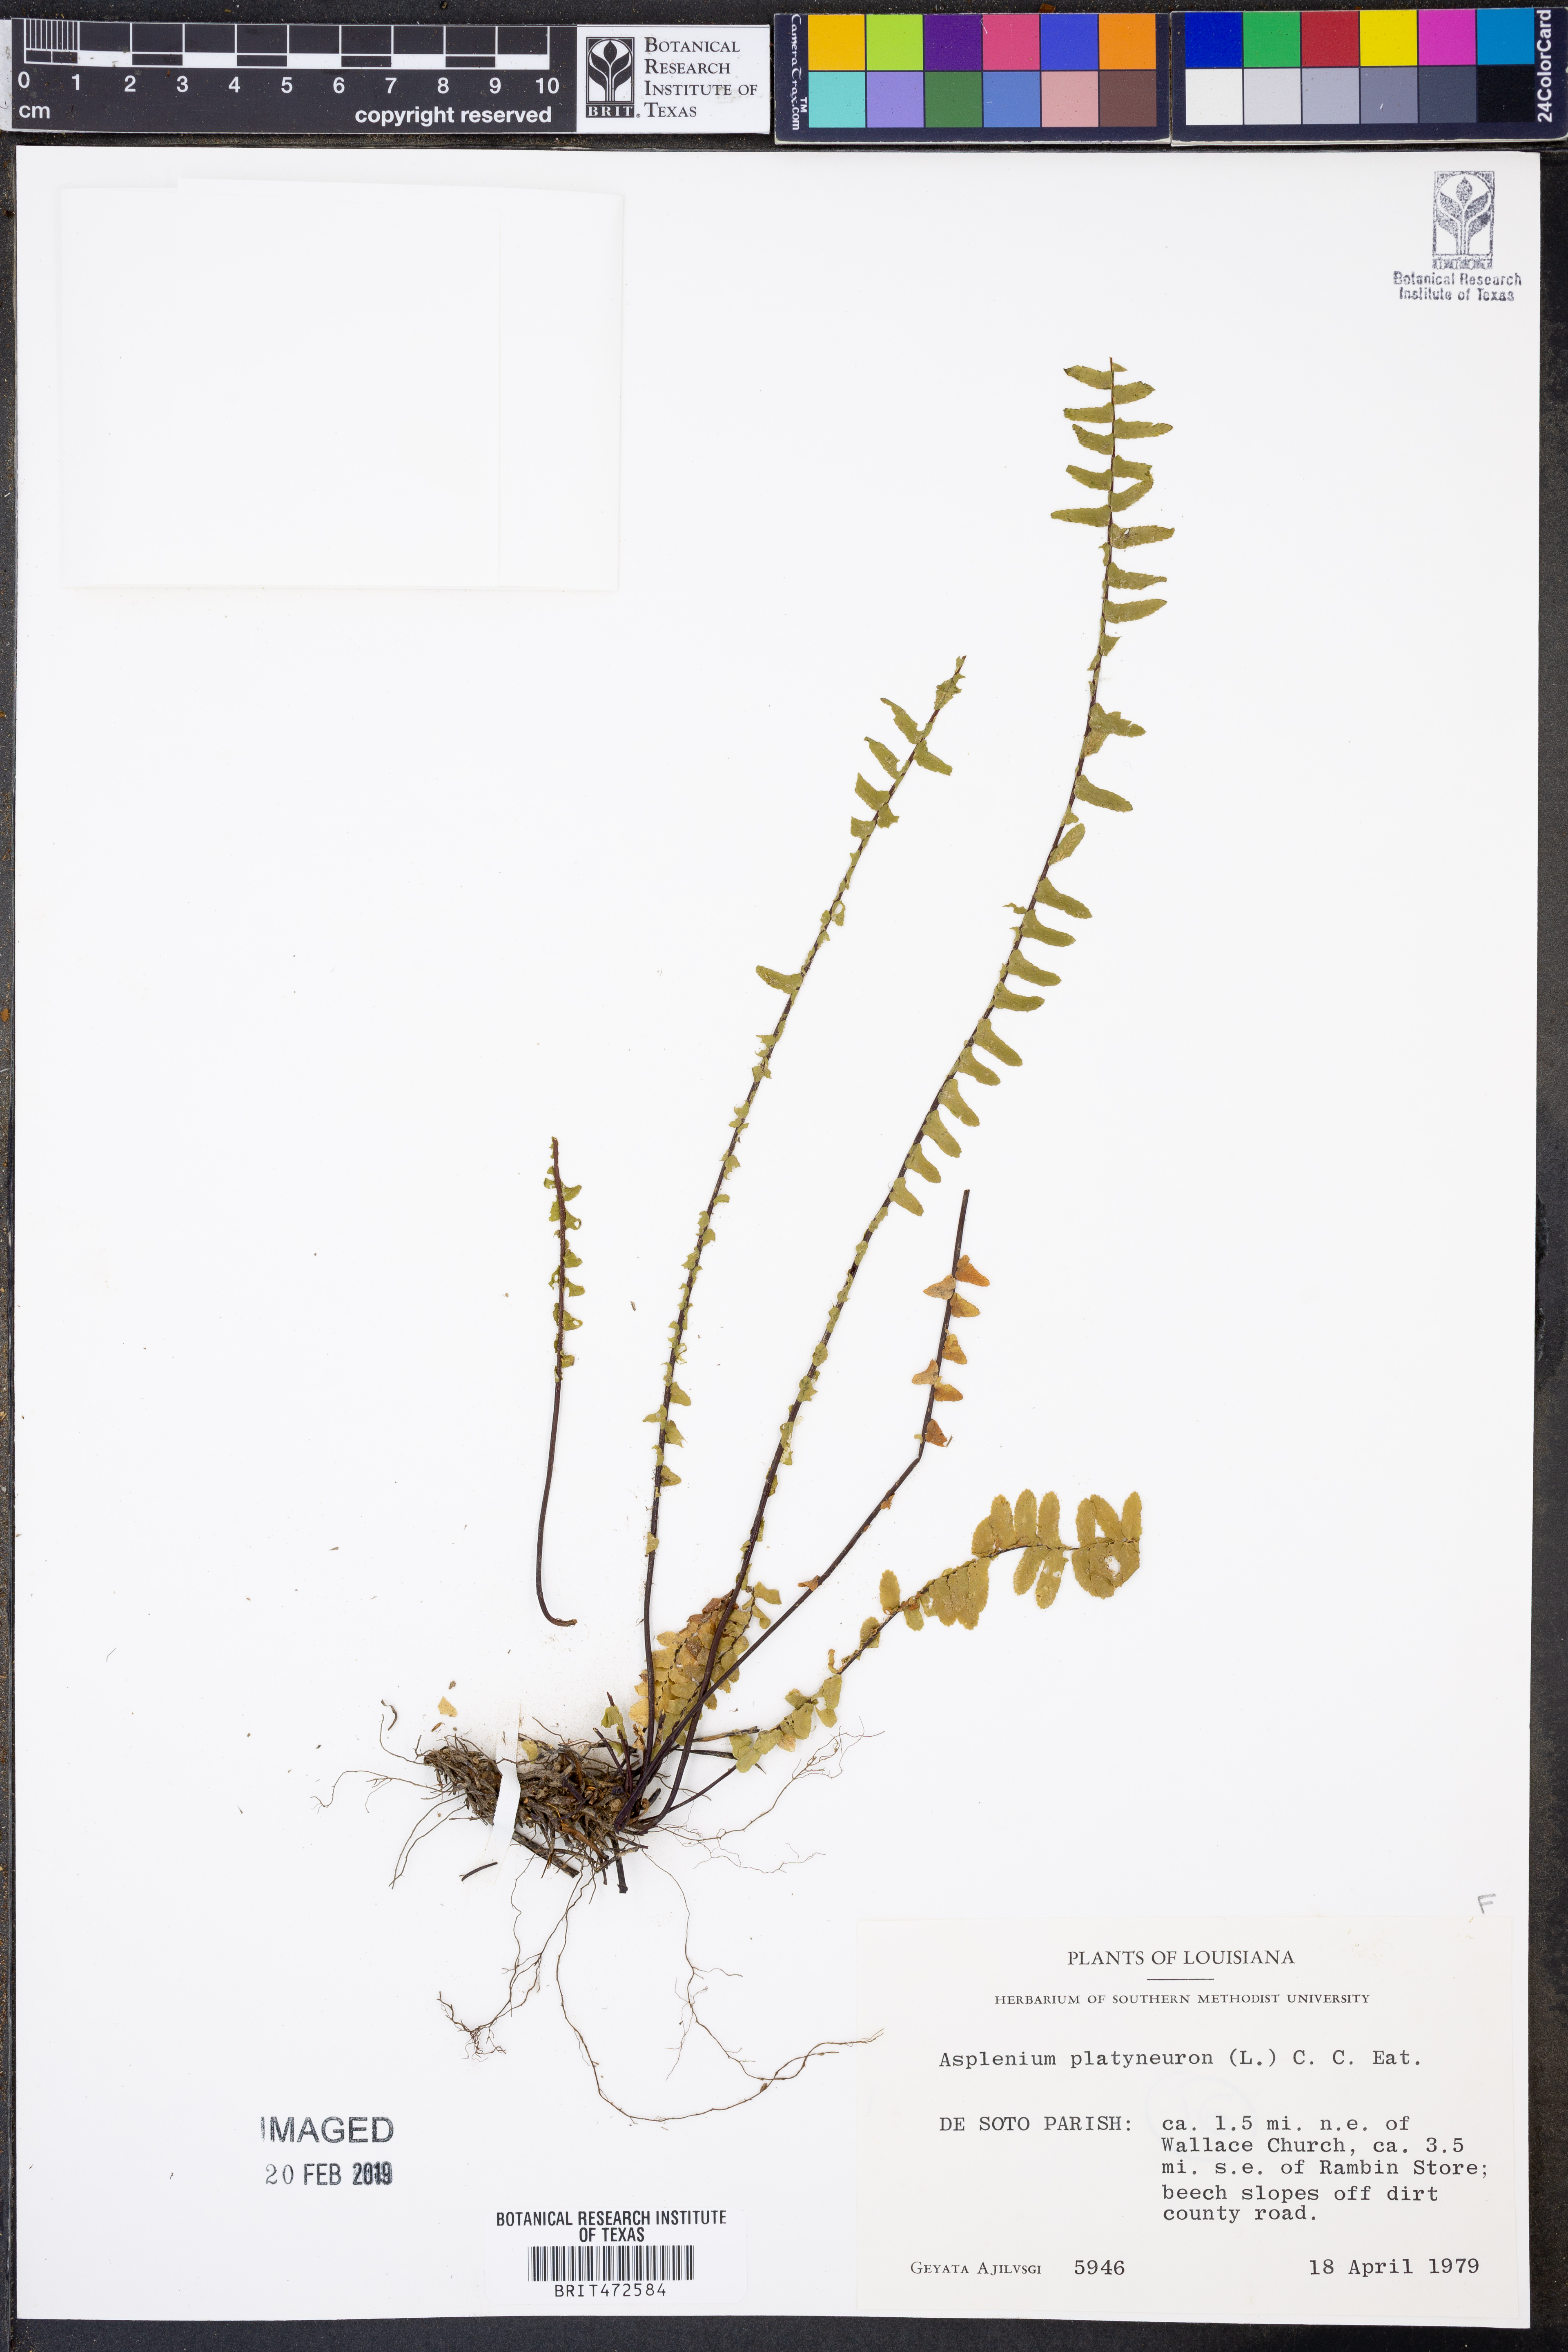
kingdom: Plantae
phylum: Tracheophyta
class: Polypodiopsida
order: Polypodiales
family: Aspleniaceae
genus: Asplenium
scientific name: Asplenium platyneuron
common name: Ebony spleenwort
